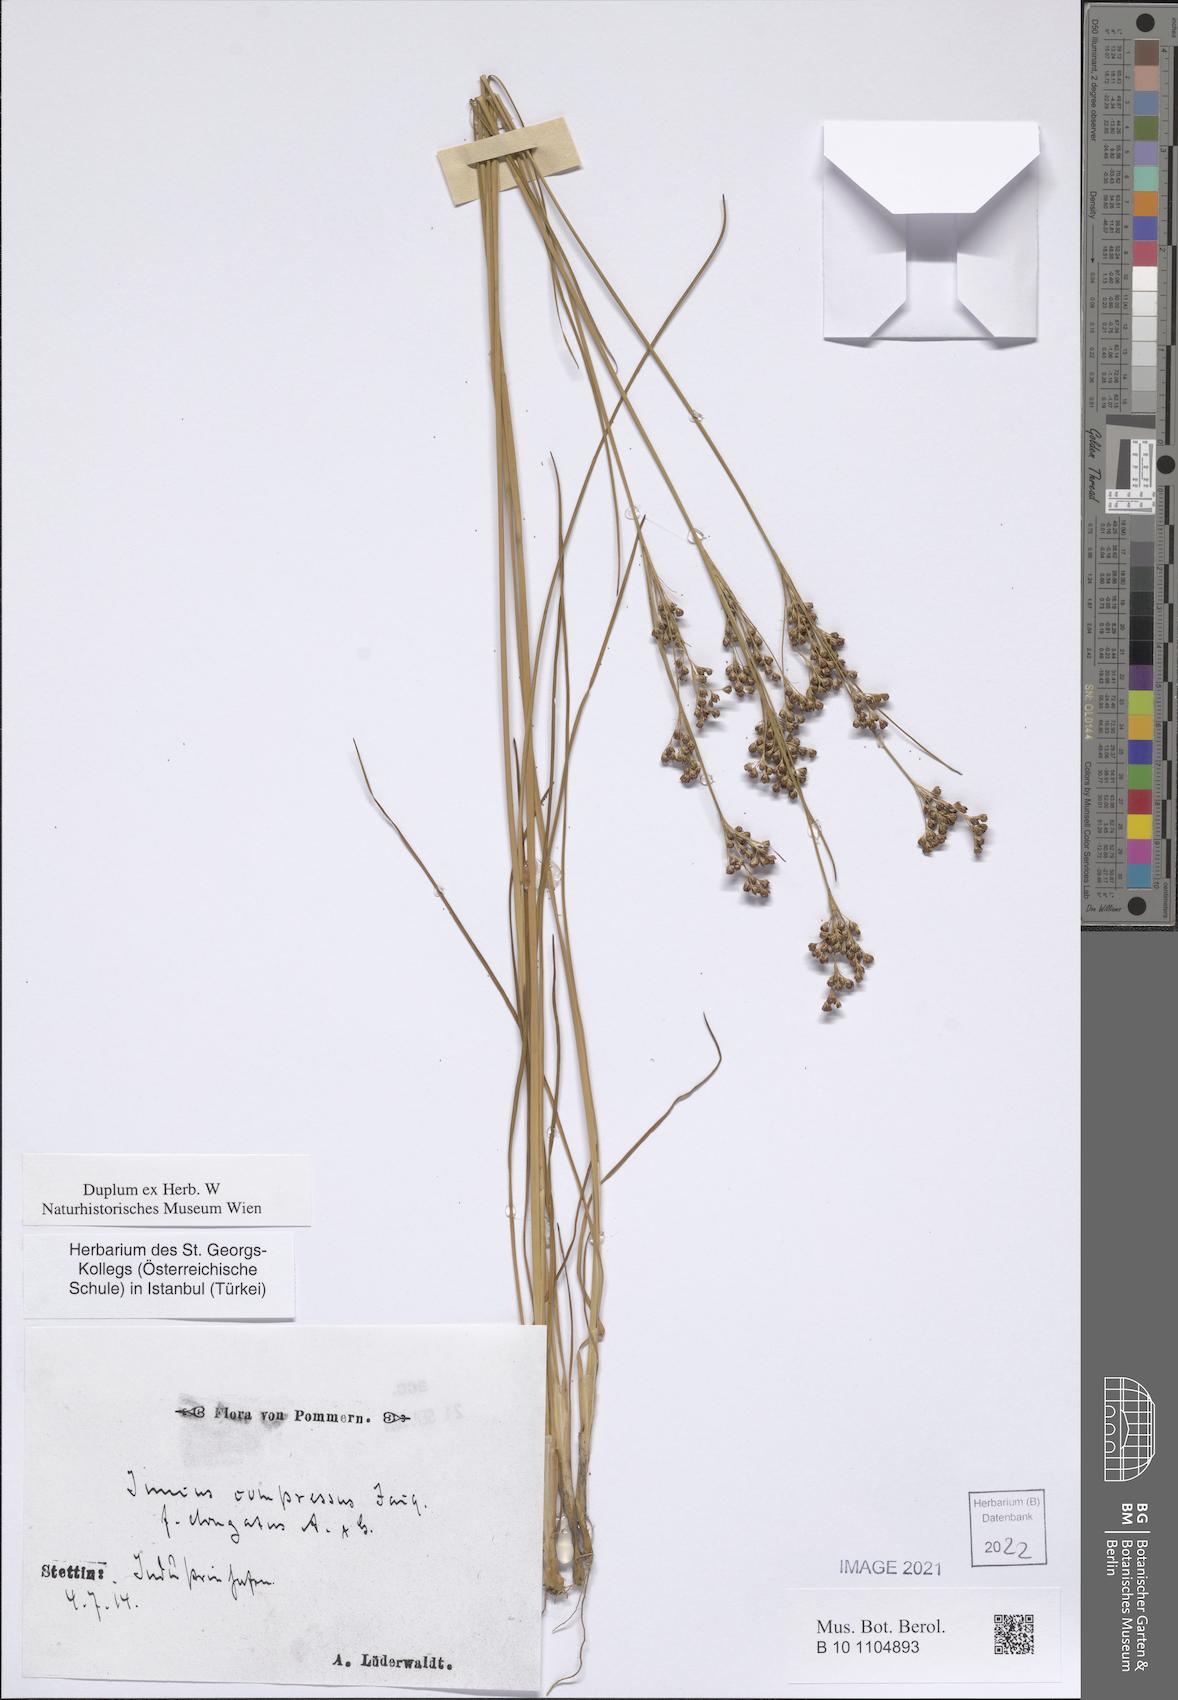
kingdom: Plantae
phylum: Tracheophyta
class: Liliopsida
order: Poales
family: Juncaceae
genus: Juncus
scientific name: Juncus compressus
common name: Round-fruited rush
